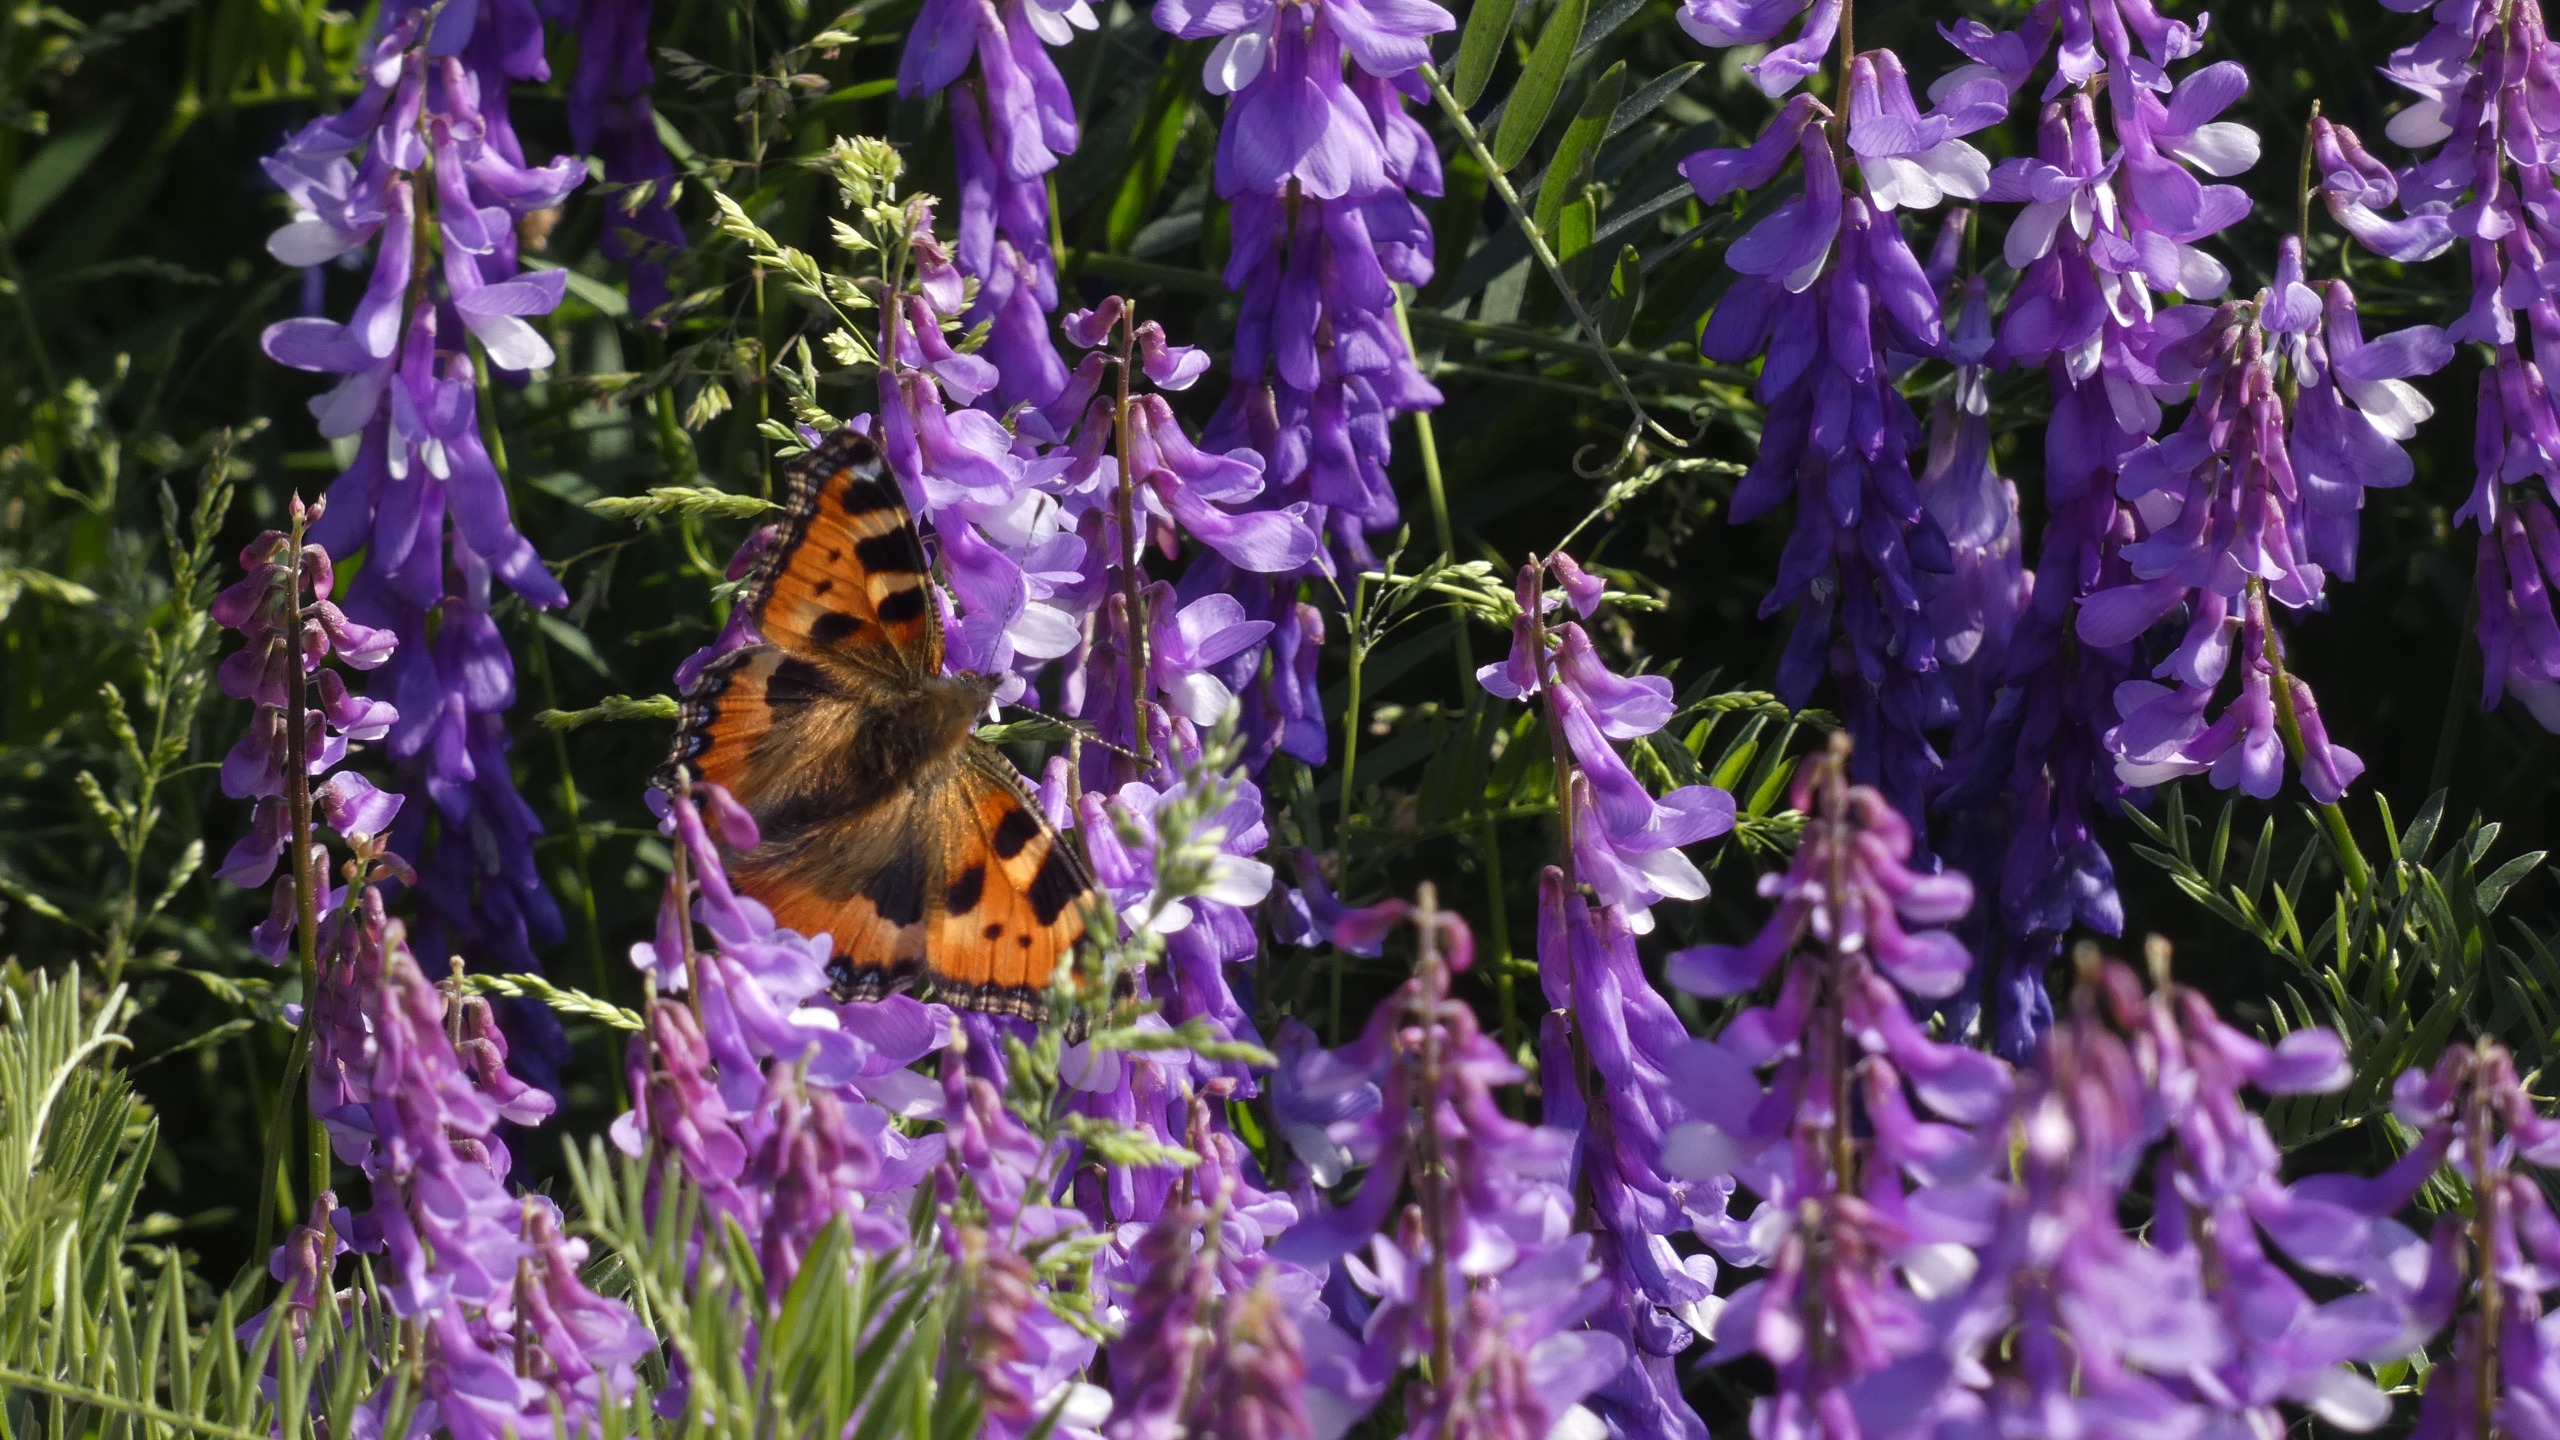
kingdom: Animalia
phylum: Arthropoda
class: Insecta
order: Lepidoptera
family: Nymphalidae
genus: Aglais
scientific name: Aglais urticae
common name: Nældens takvinge
